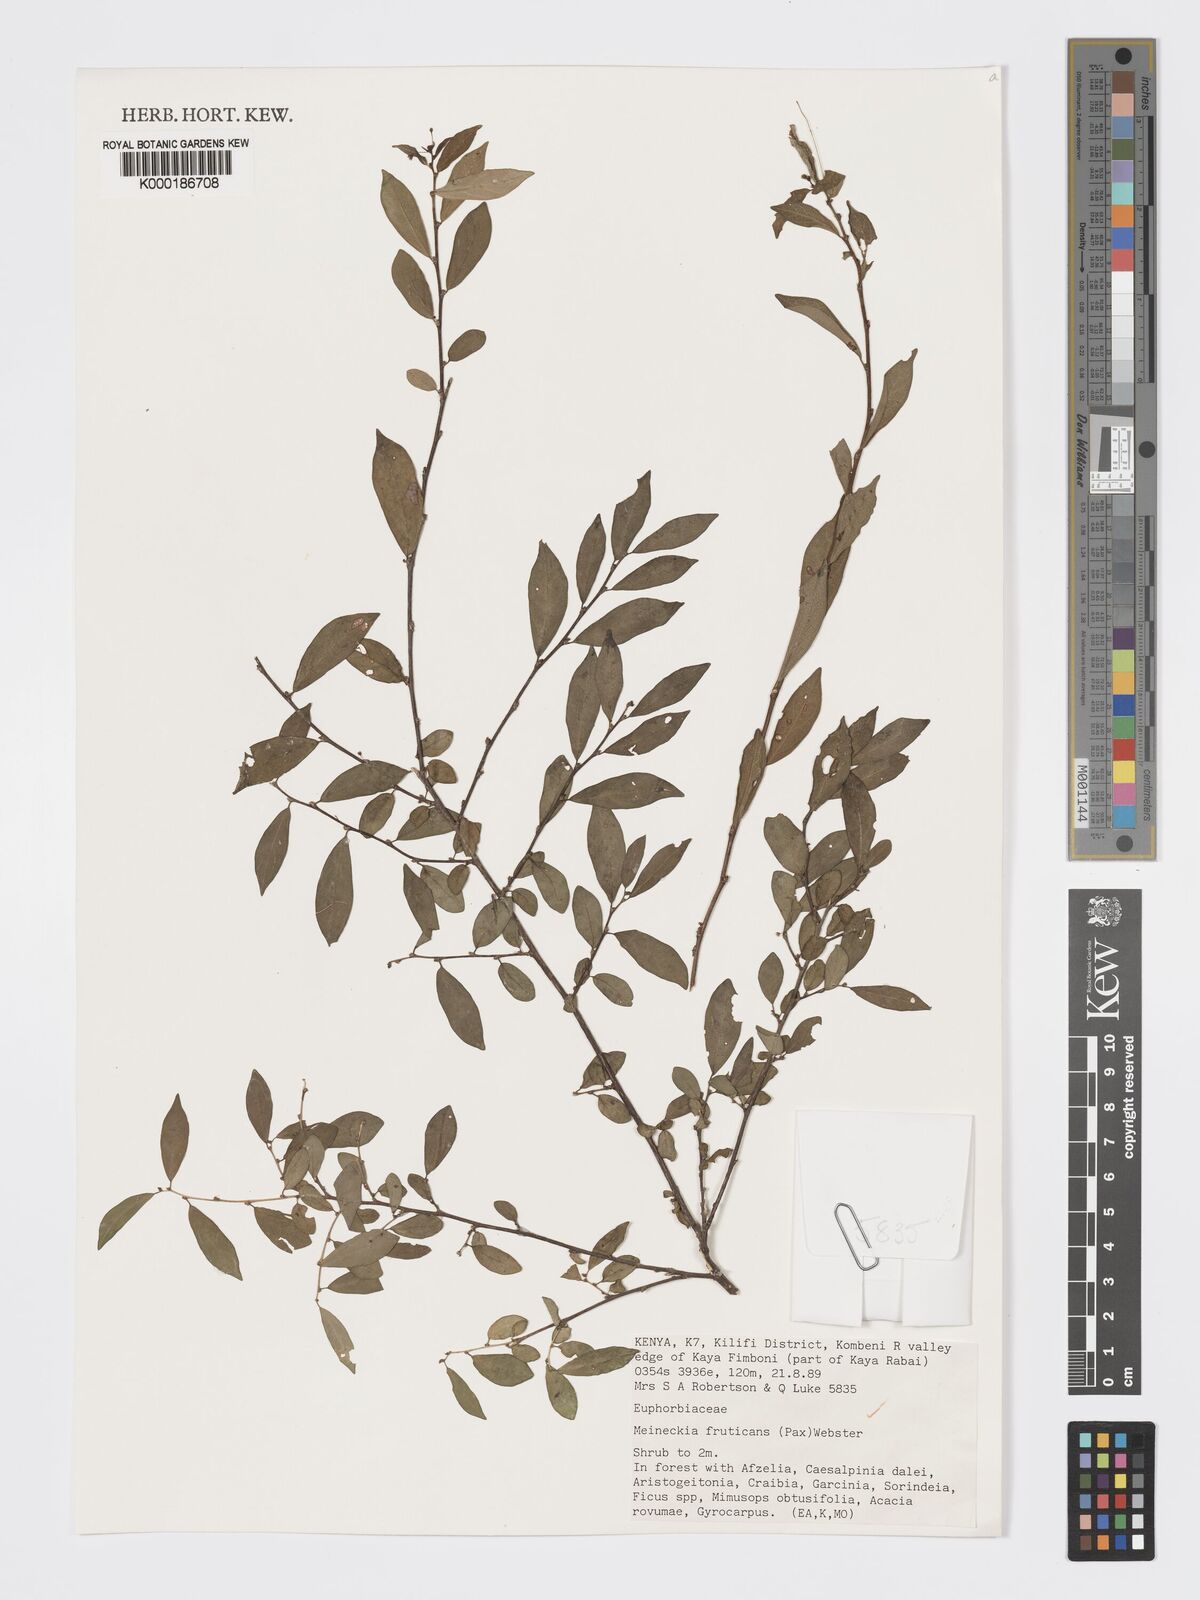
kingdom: Plantae
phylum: Tracheophyta
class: Magnoliopsida
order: Malpighiales
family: Phyllanthaceae
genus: Meineckia
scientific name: Meineckia fruticans
